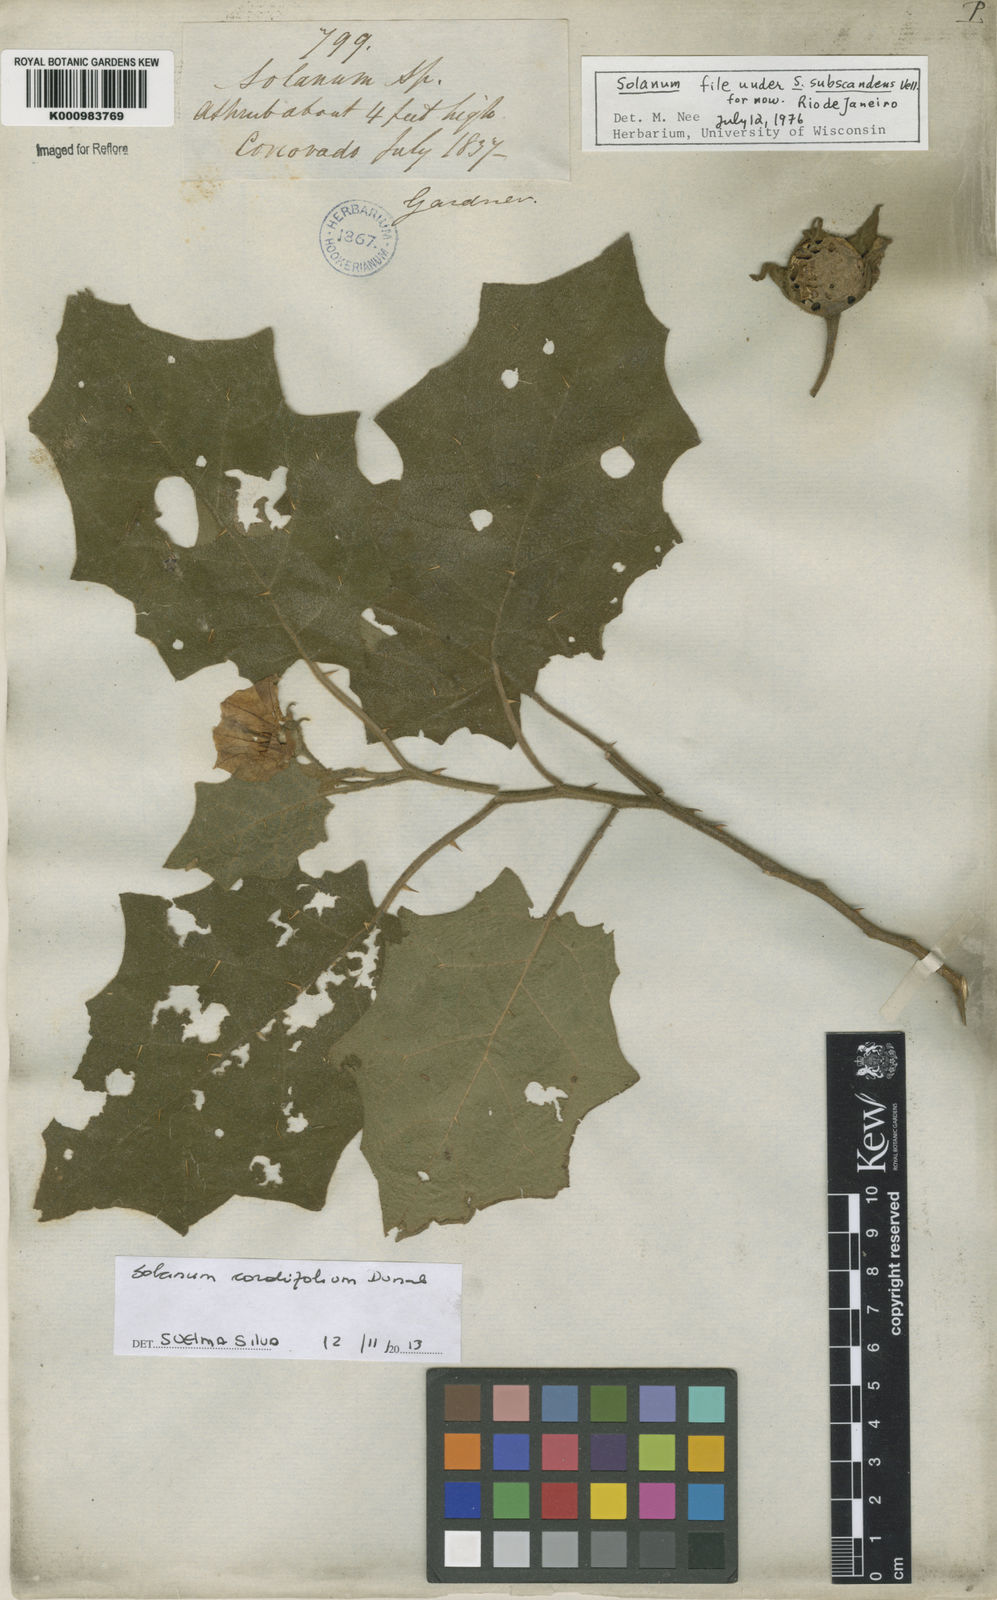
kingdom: Plantae
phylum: Tracheophyta
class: Magnoliopsida
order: Solanales
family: Solanaceae
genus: Solanum
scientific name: Solanum cordifolium
